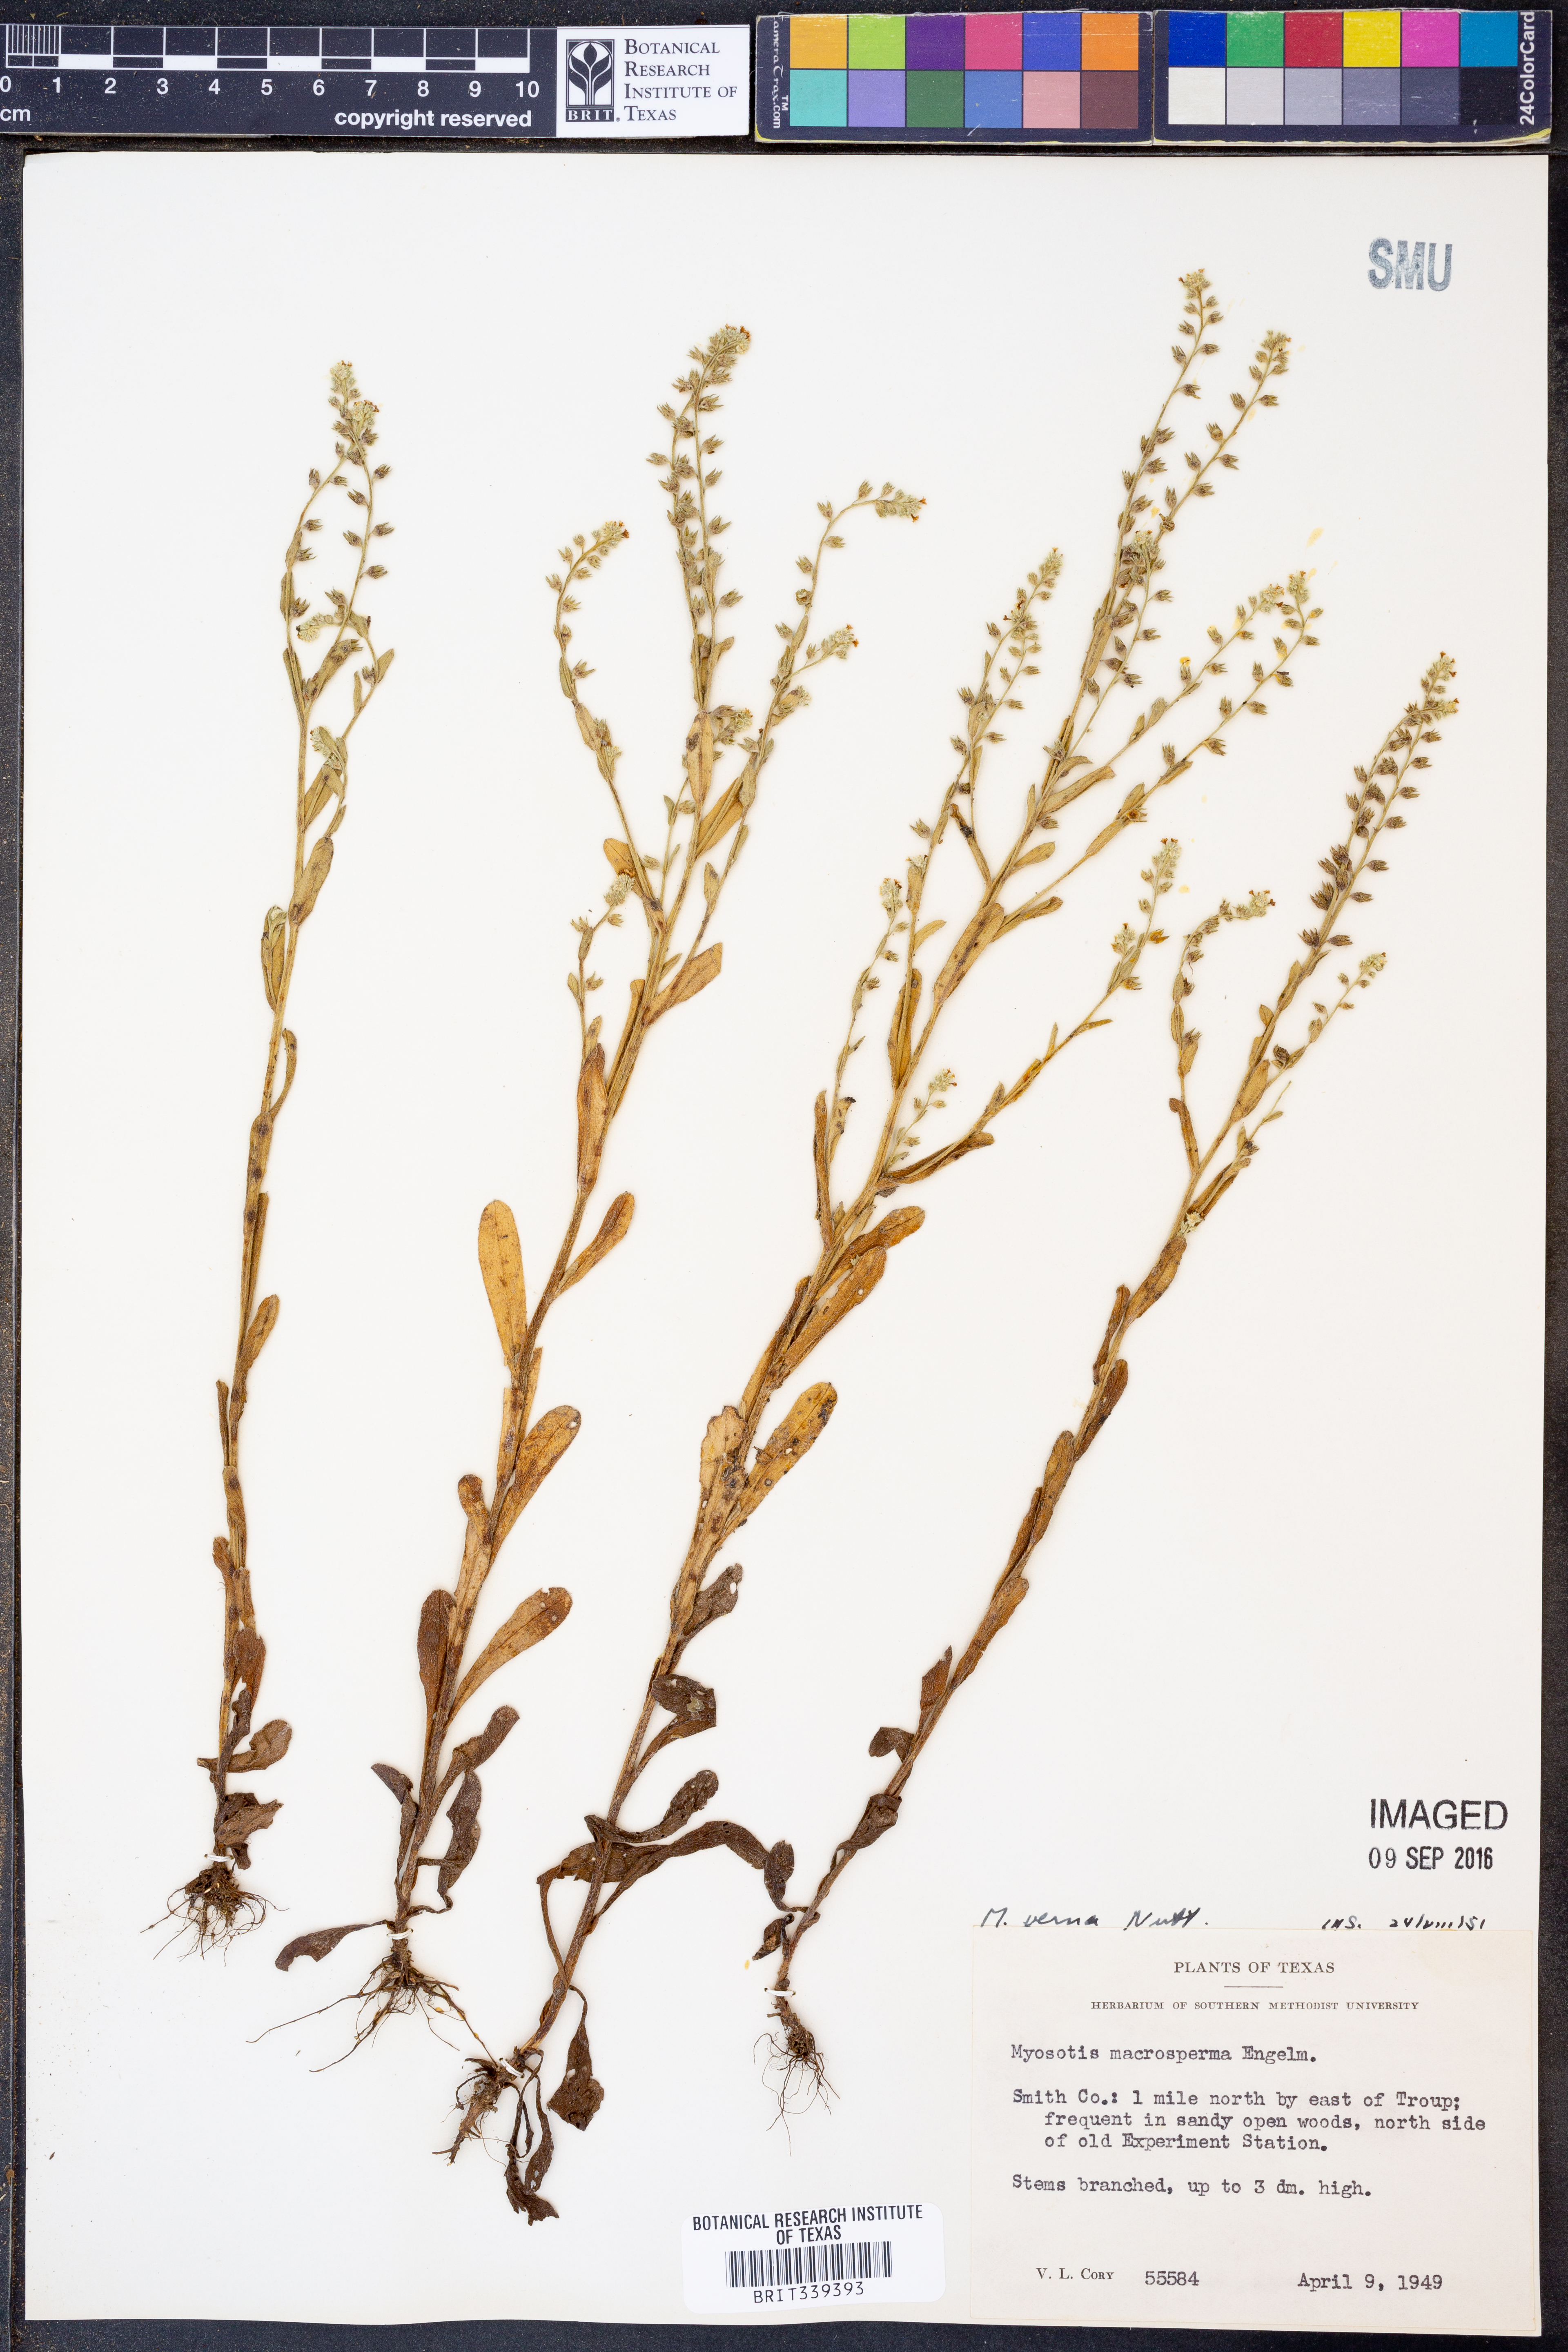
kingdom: Plantae
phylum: Tracheophyta
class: Magnoliopsida
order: Boraginales
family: Boraginaceae
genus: Myosotis
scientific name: Myosotis verna
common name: Early forget-me-not
